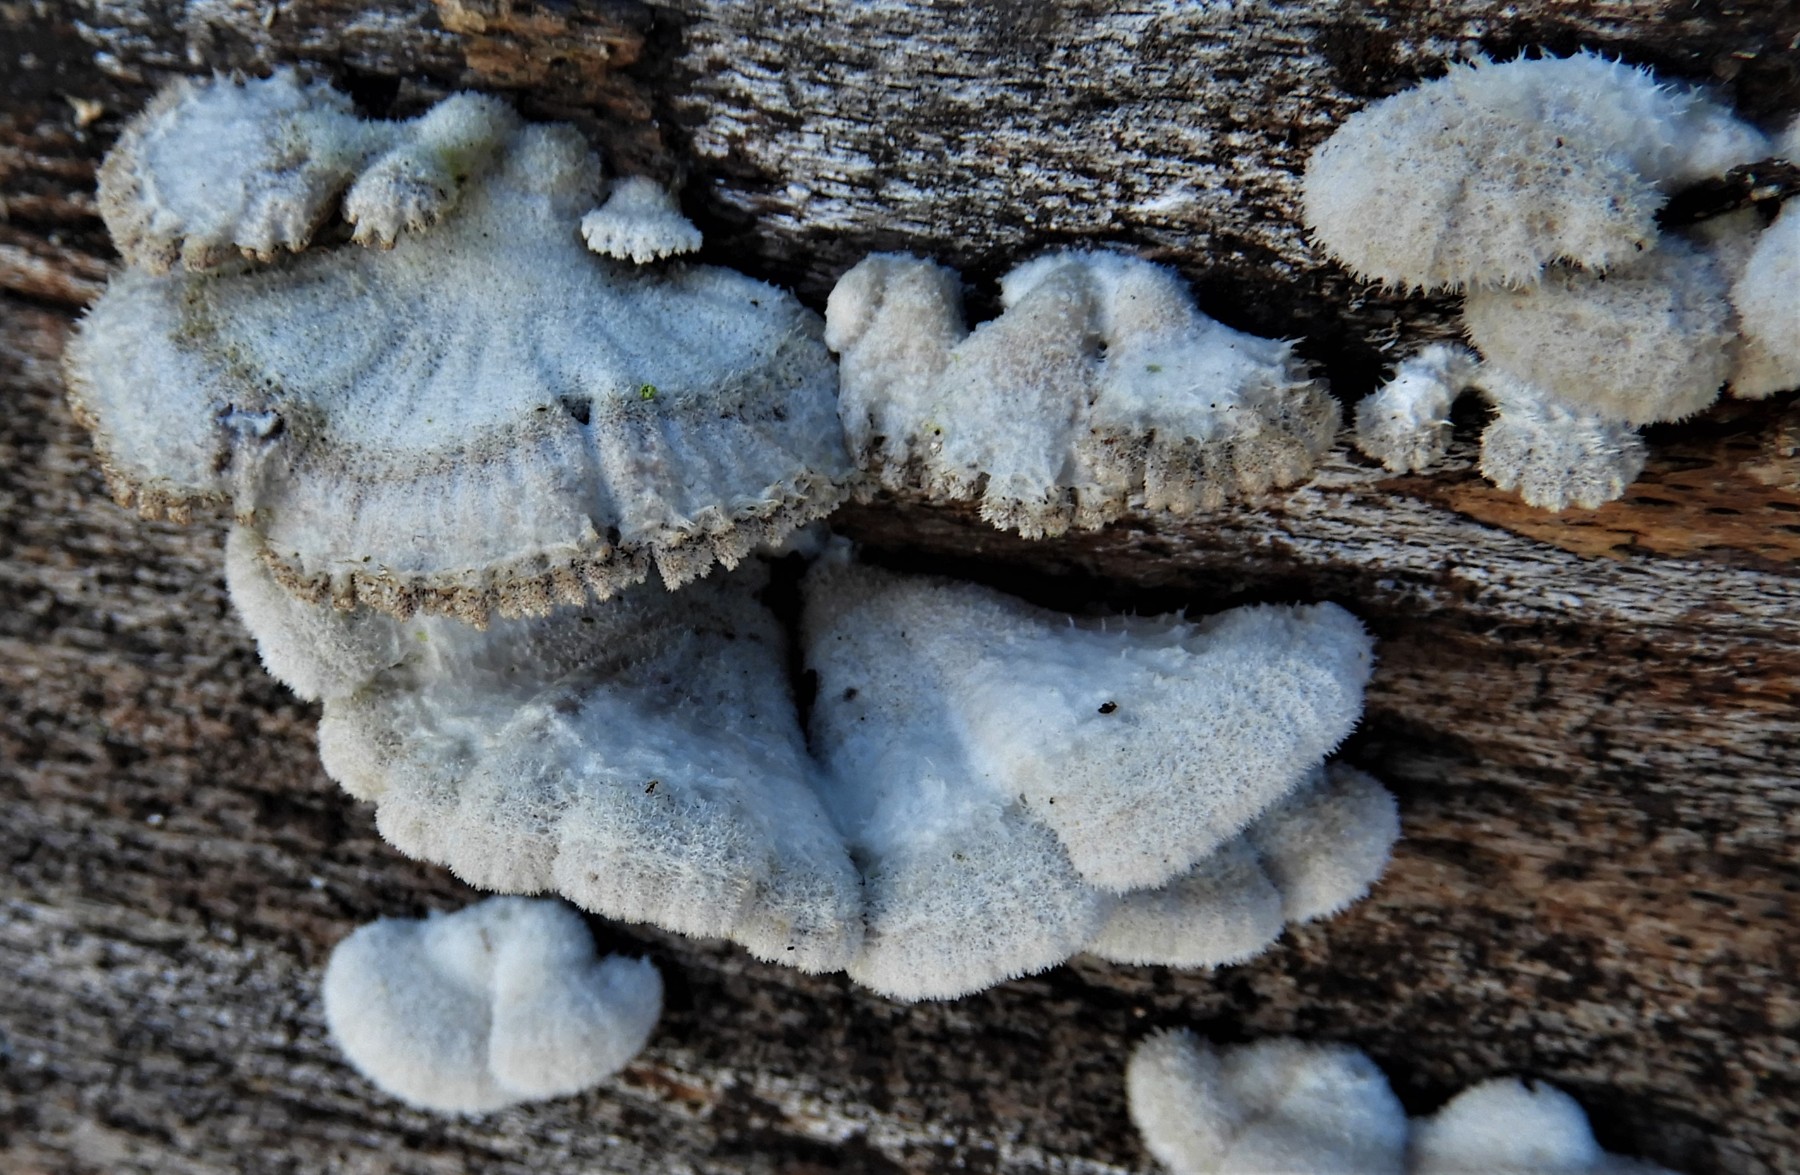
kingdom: Fungi
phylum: Basidiomycota
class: Agaricomycetes
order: Agaricales
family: Schizophyllaceae
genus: Schizophyllum
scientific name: Schizophyllum
